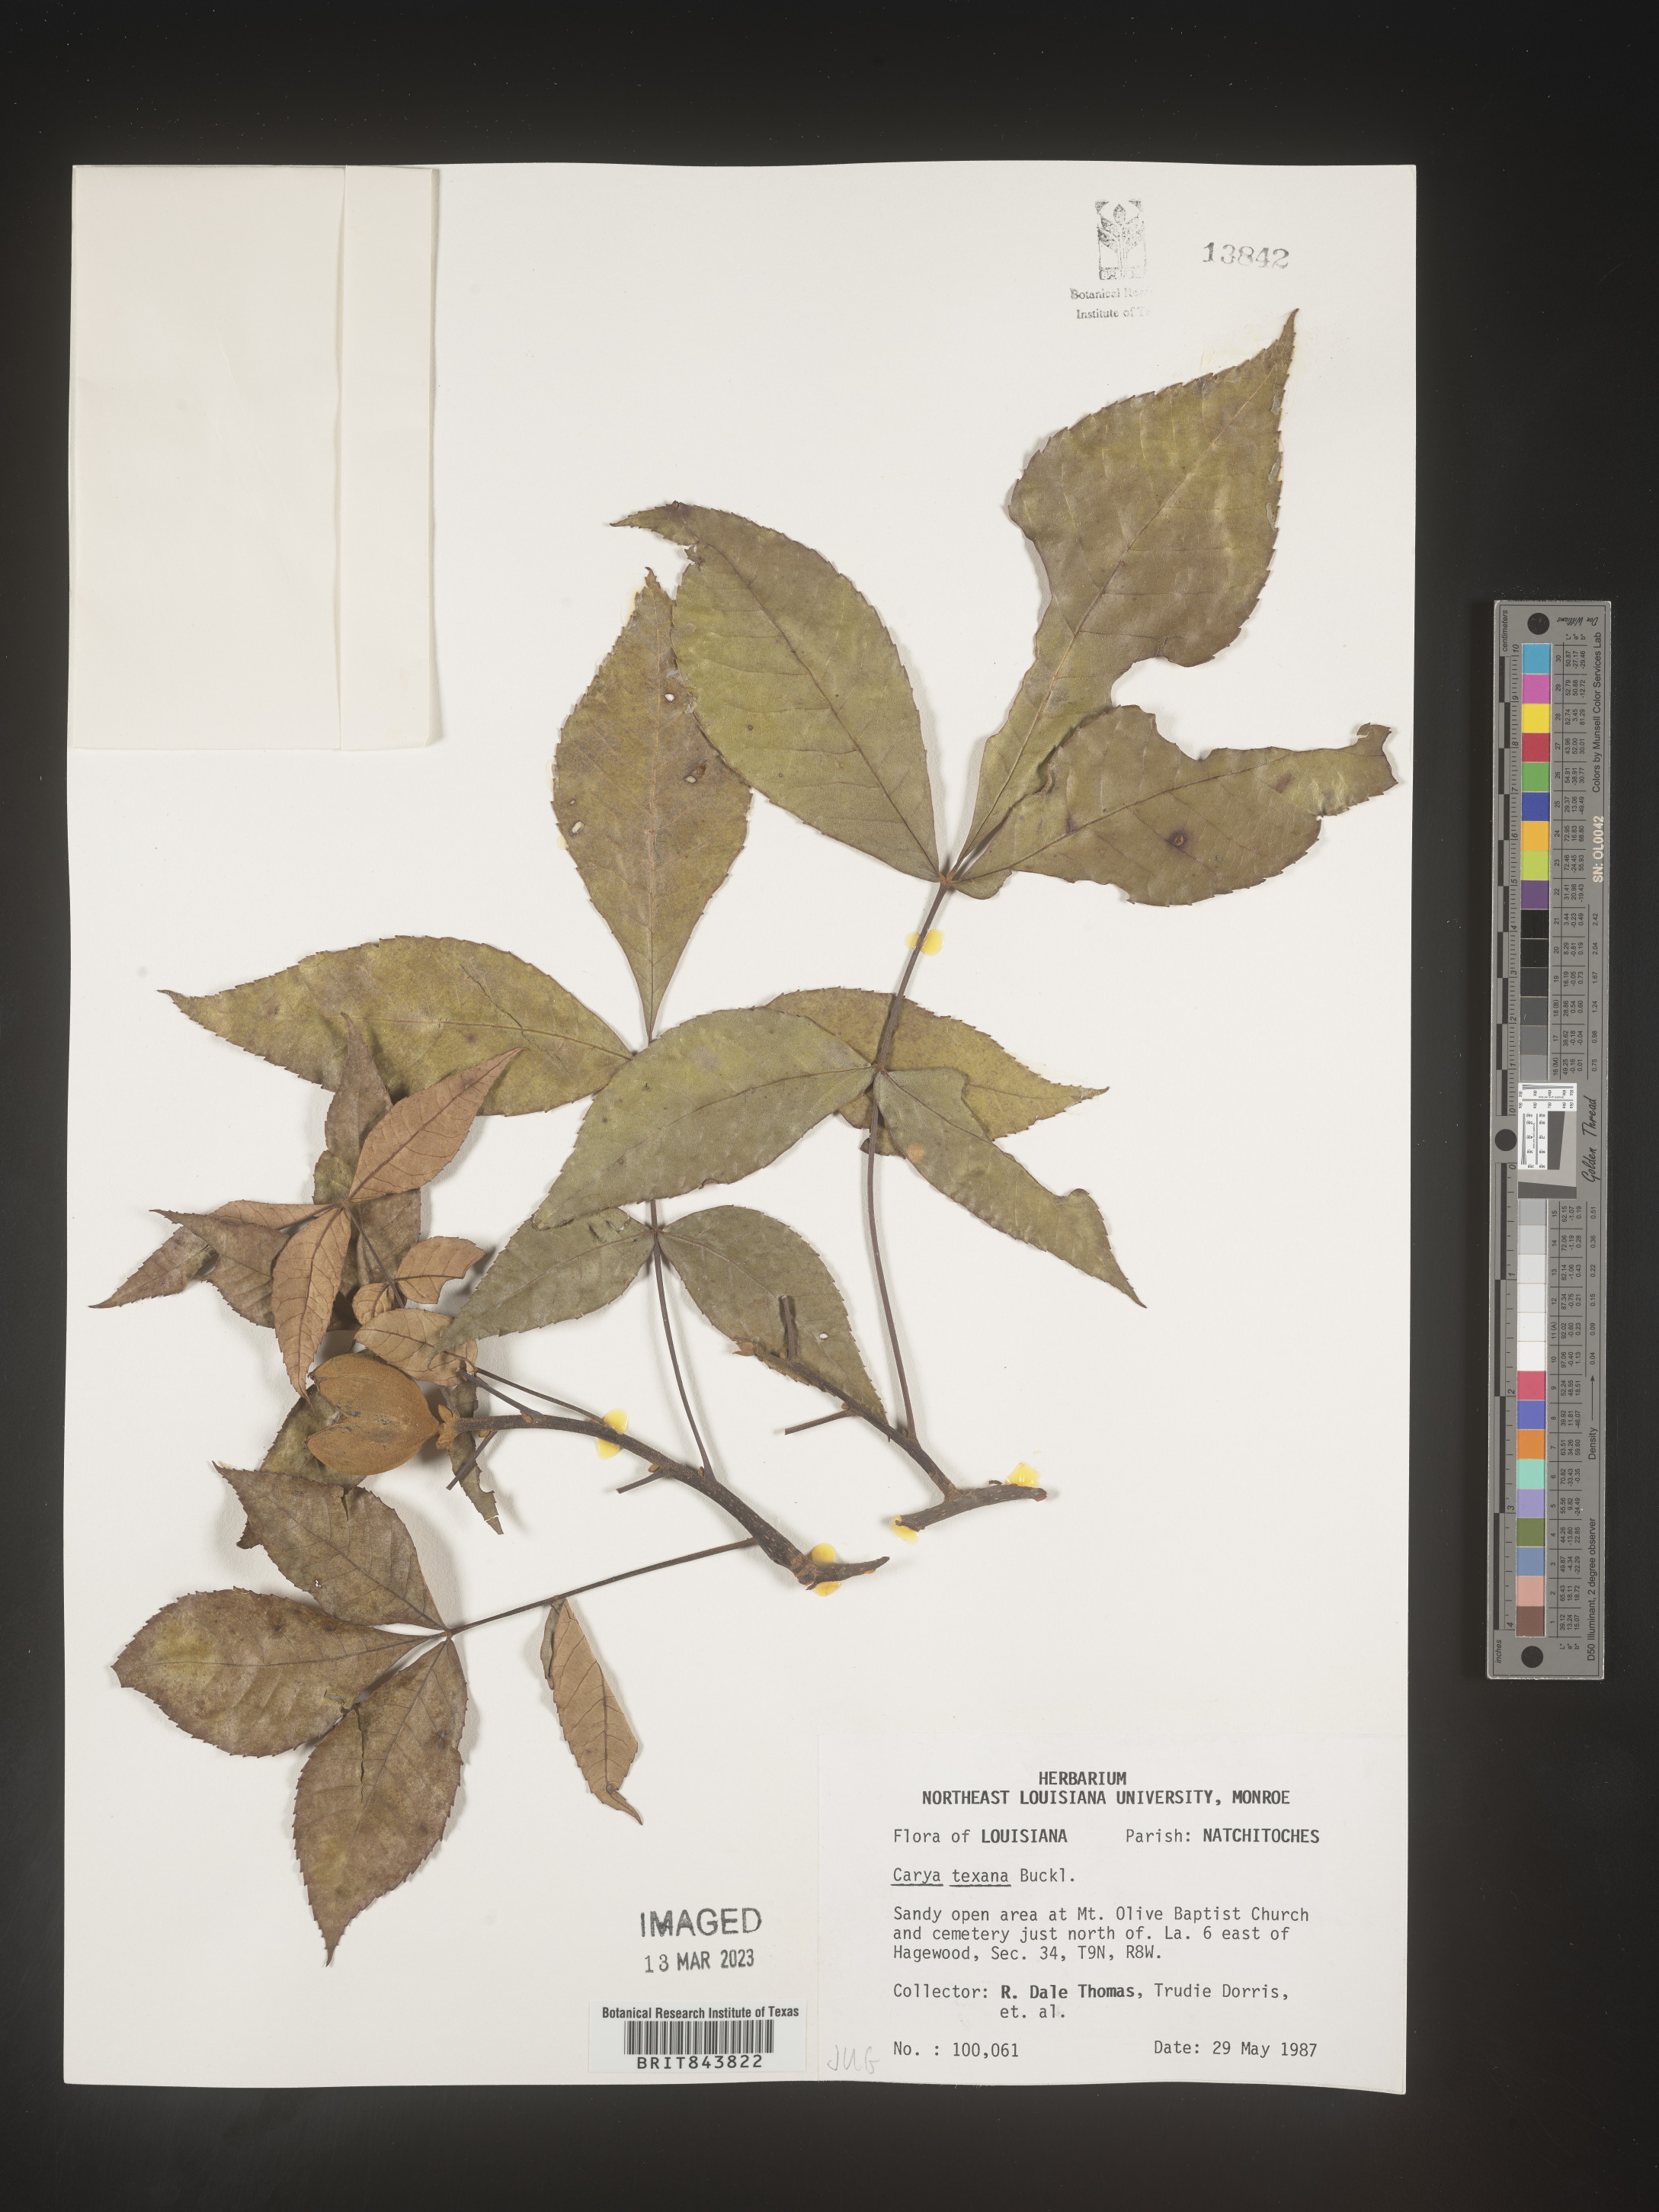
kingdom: Plantae
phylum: Tracheophyta
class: Magnoliopsida
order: Fagales
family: Juglandaceae
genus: Carya
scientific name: Carya texana
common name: Black hickory
